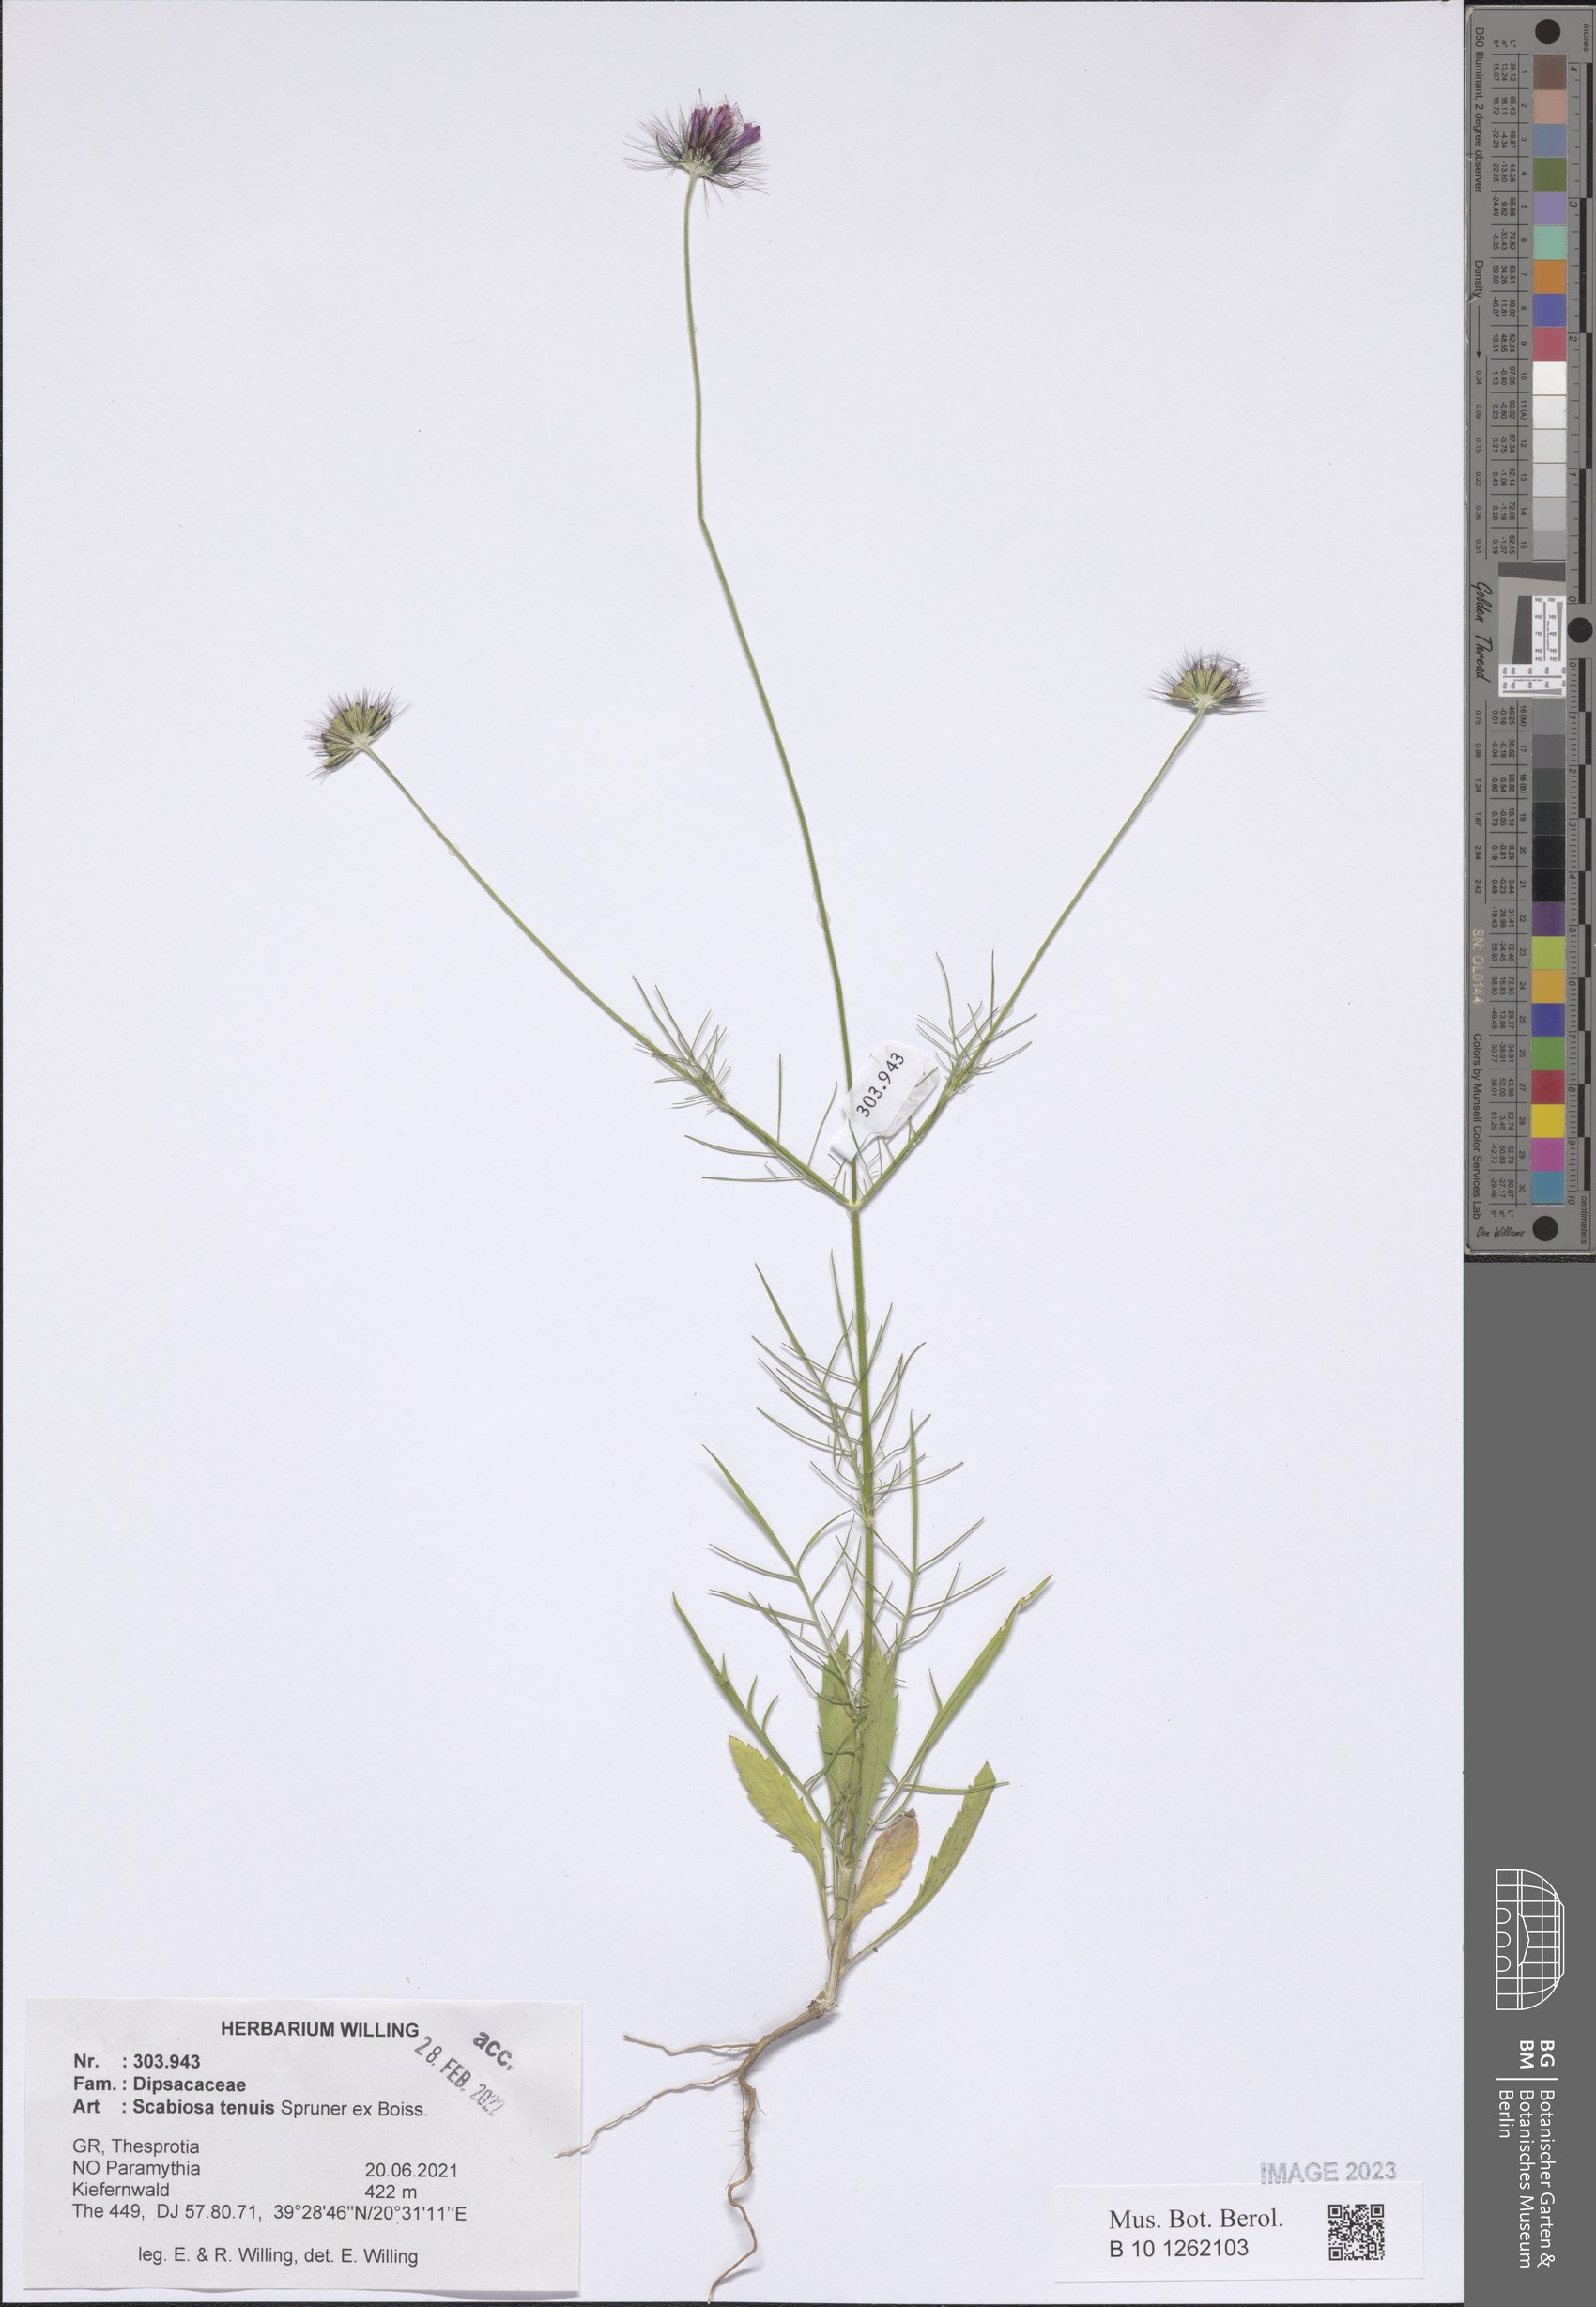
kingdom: Plantae
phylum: Tracheophyta
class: Magnoliopsida
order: Dipsacales
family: Caprifoliaceae
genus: Scabiosa
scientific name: Scabiosa tenuis
